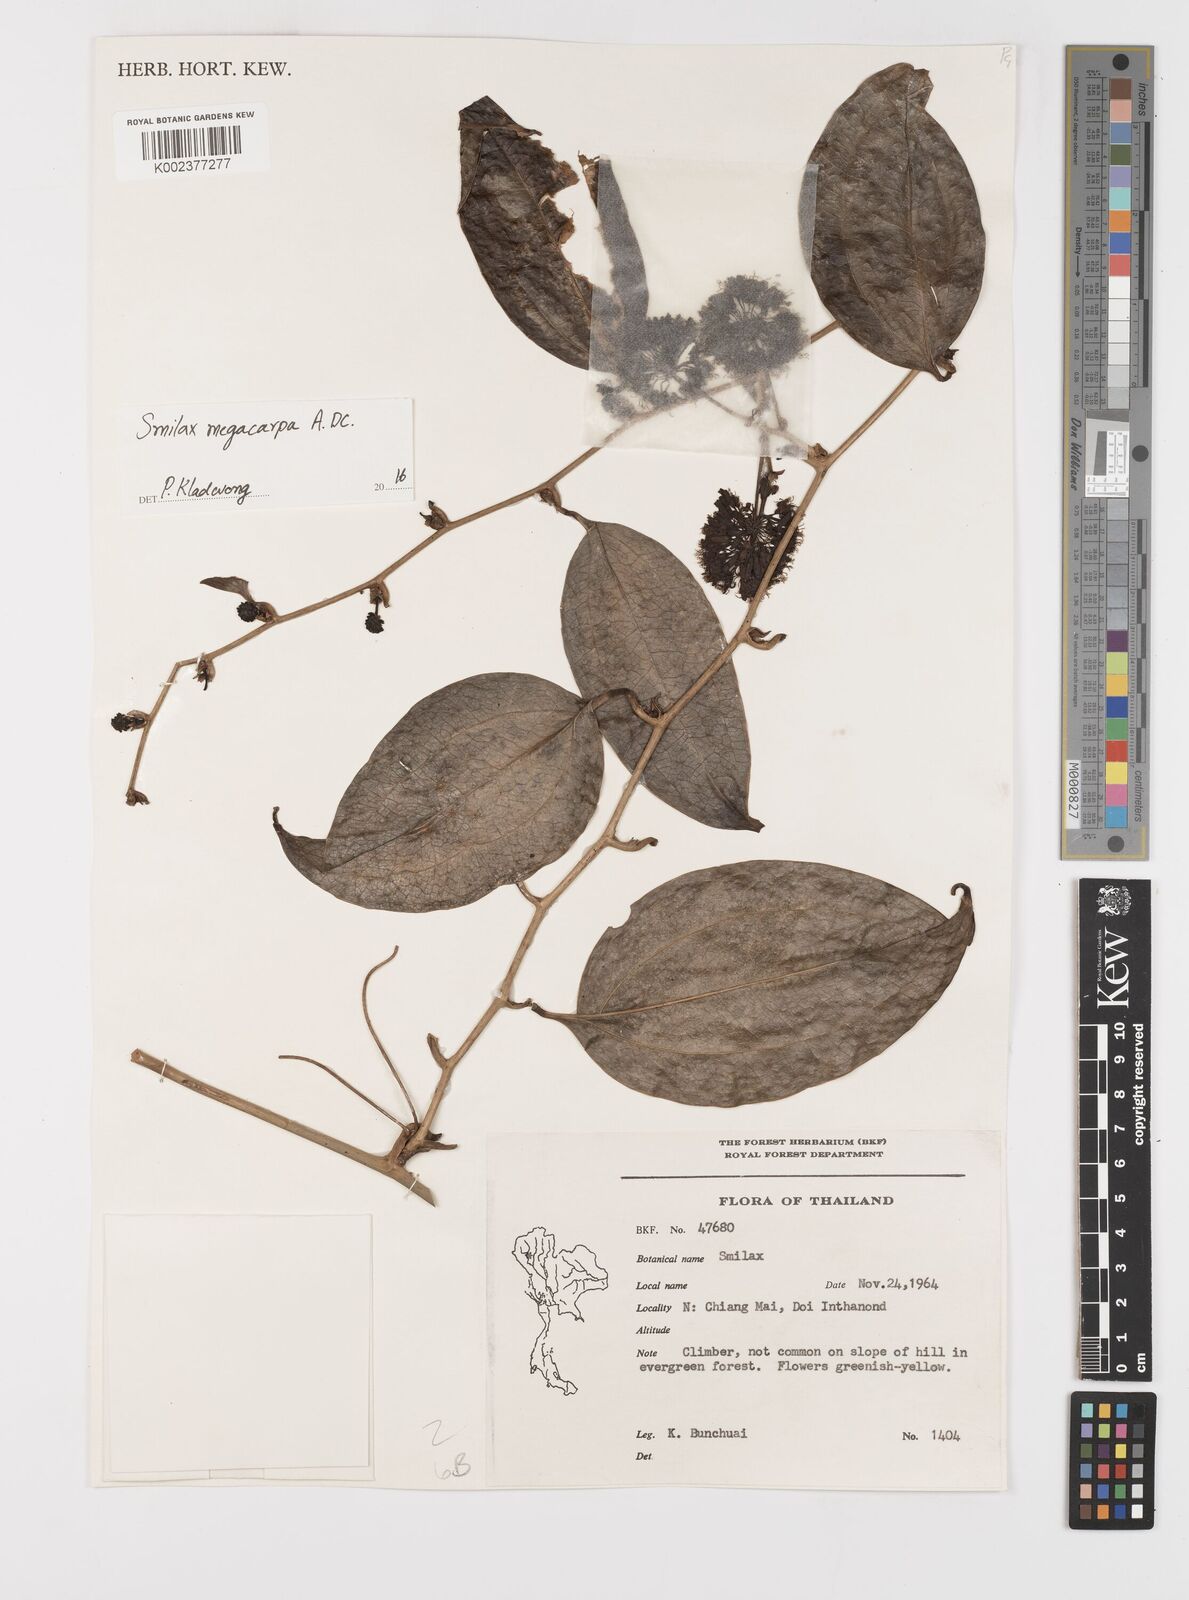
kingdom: Plantae
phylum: Tracheophyta
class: Liliopsida
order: Liliales
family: Smilacaceae
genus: Smilax
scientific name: Smilax megacarpa
